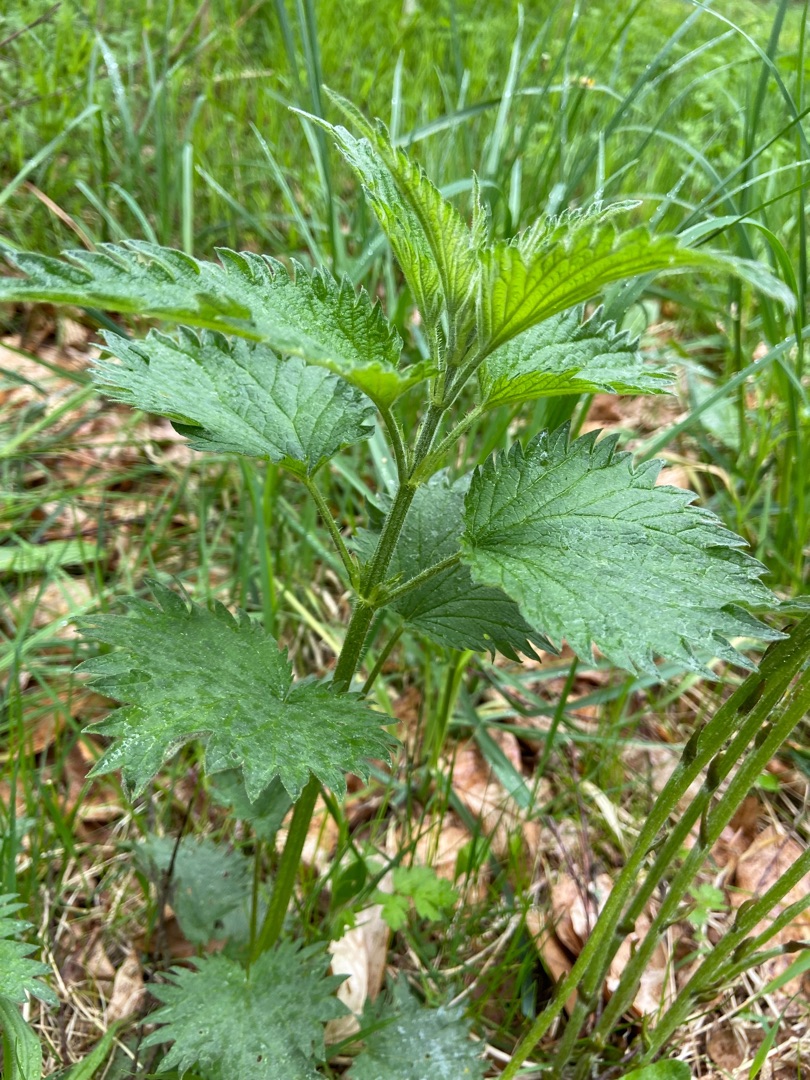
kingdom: Plantae
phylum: Tracheophyta
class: Magnoliopsida
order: Rosales
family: Urticaceae
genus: Urtica
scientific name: Urtica dioica
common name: Stor nælde
